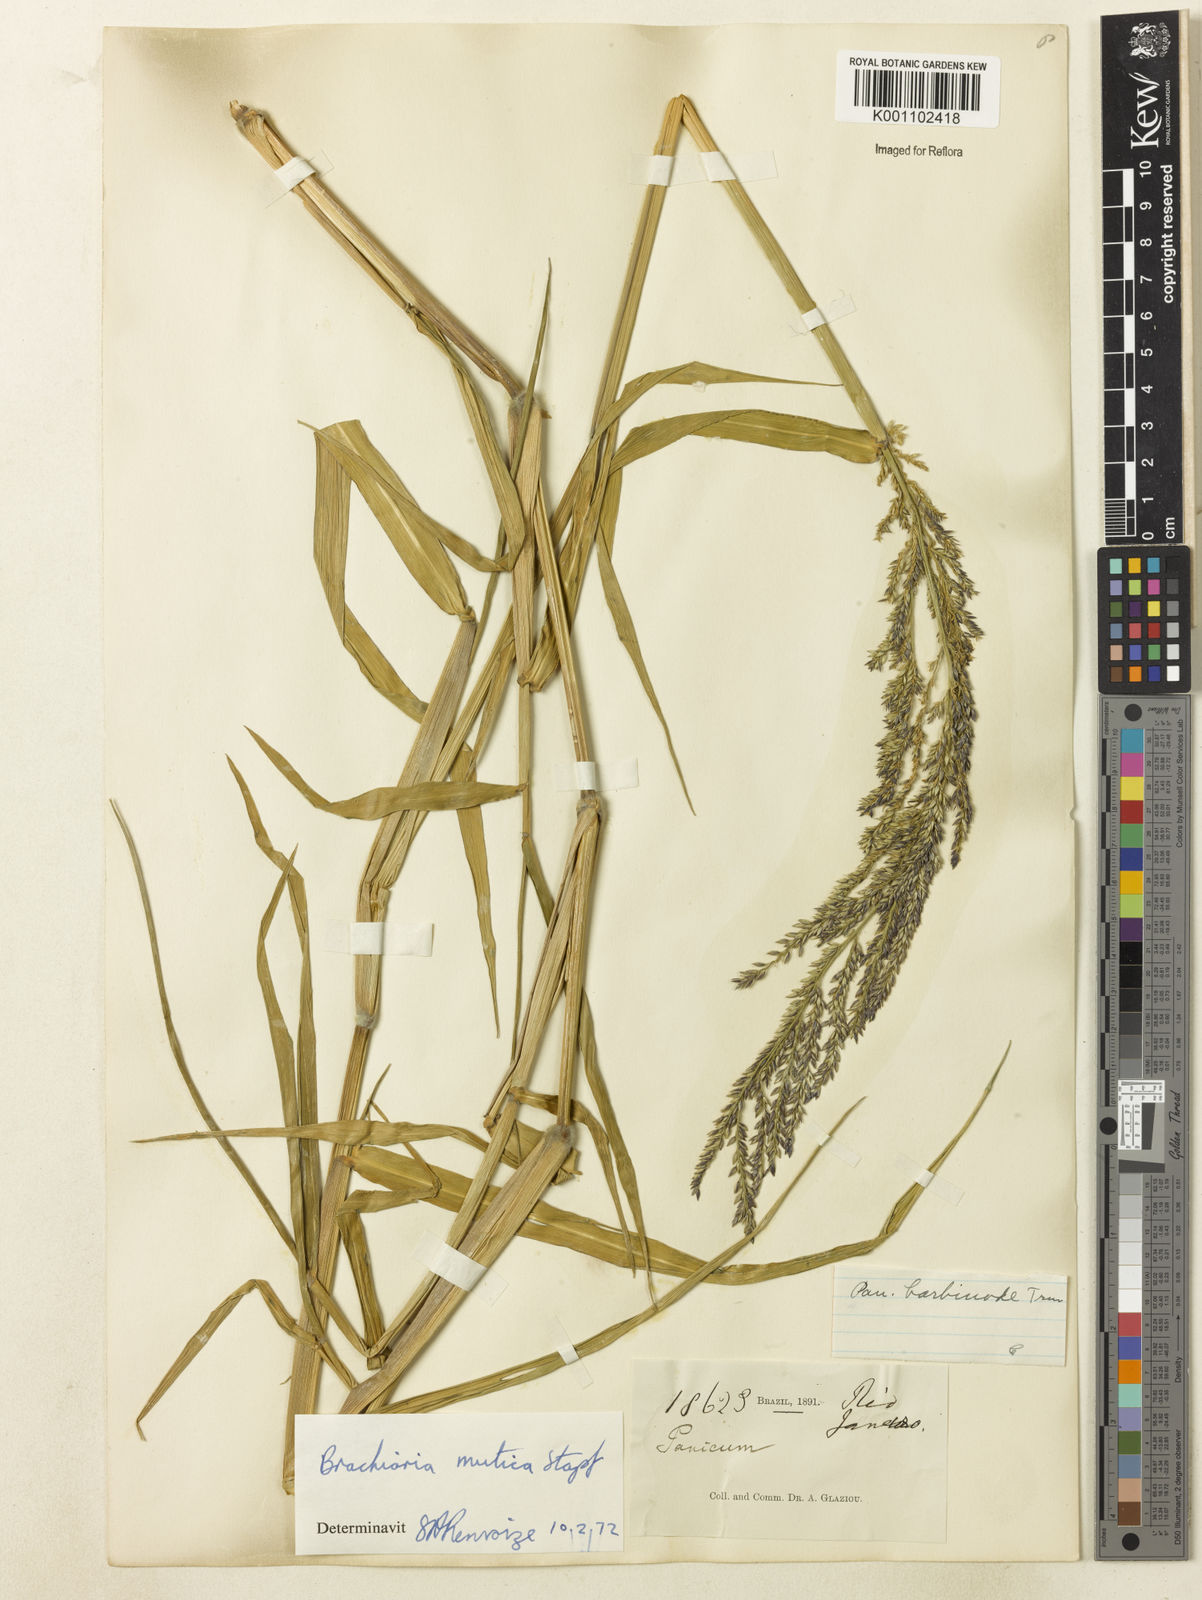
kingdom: Plantae
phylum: Tracheophyta
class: Liliopsida
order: Poales
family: Poaceae
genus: Urochloa
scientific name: Urochloa mutica
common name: Para grass
